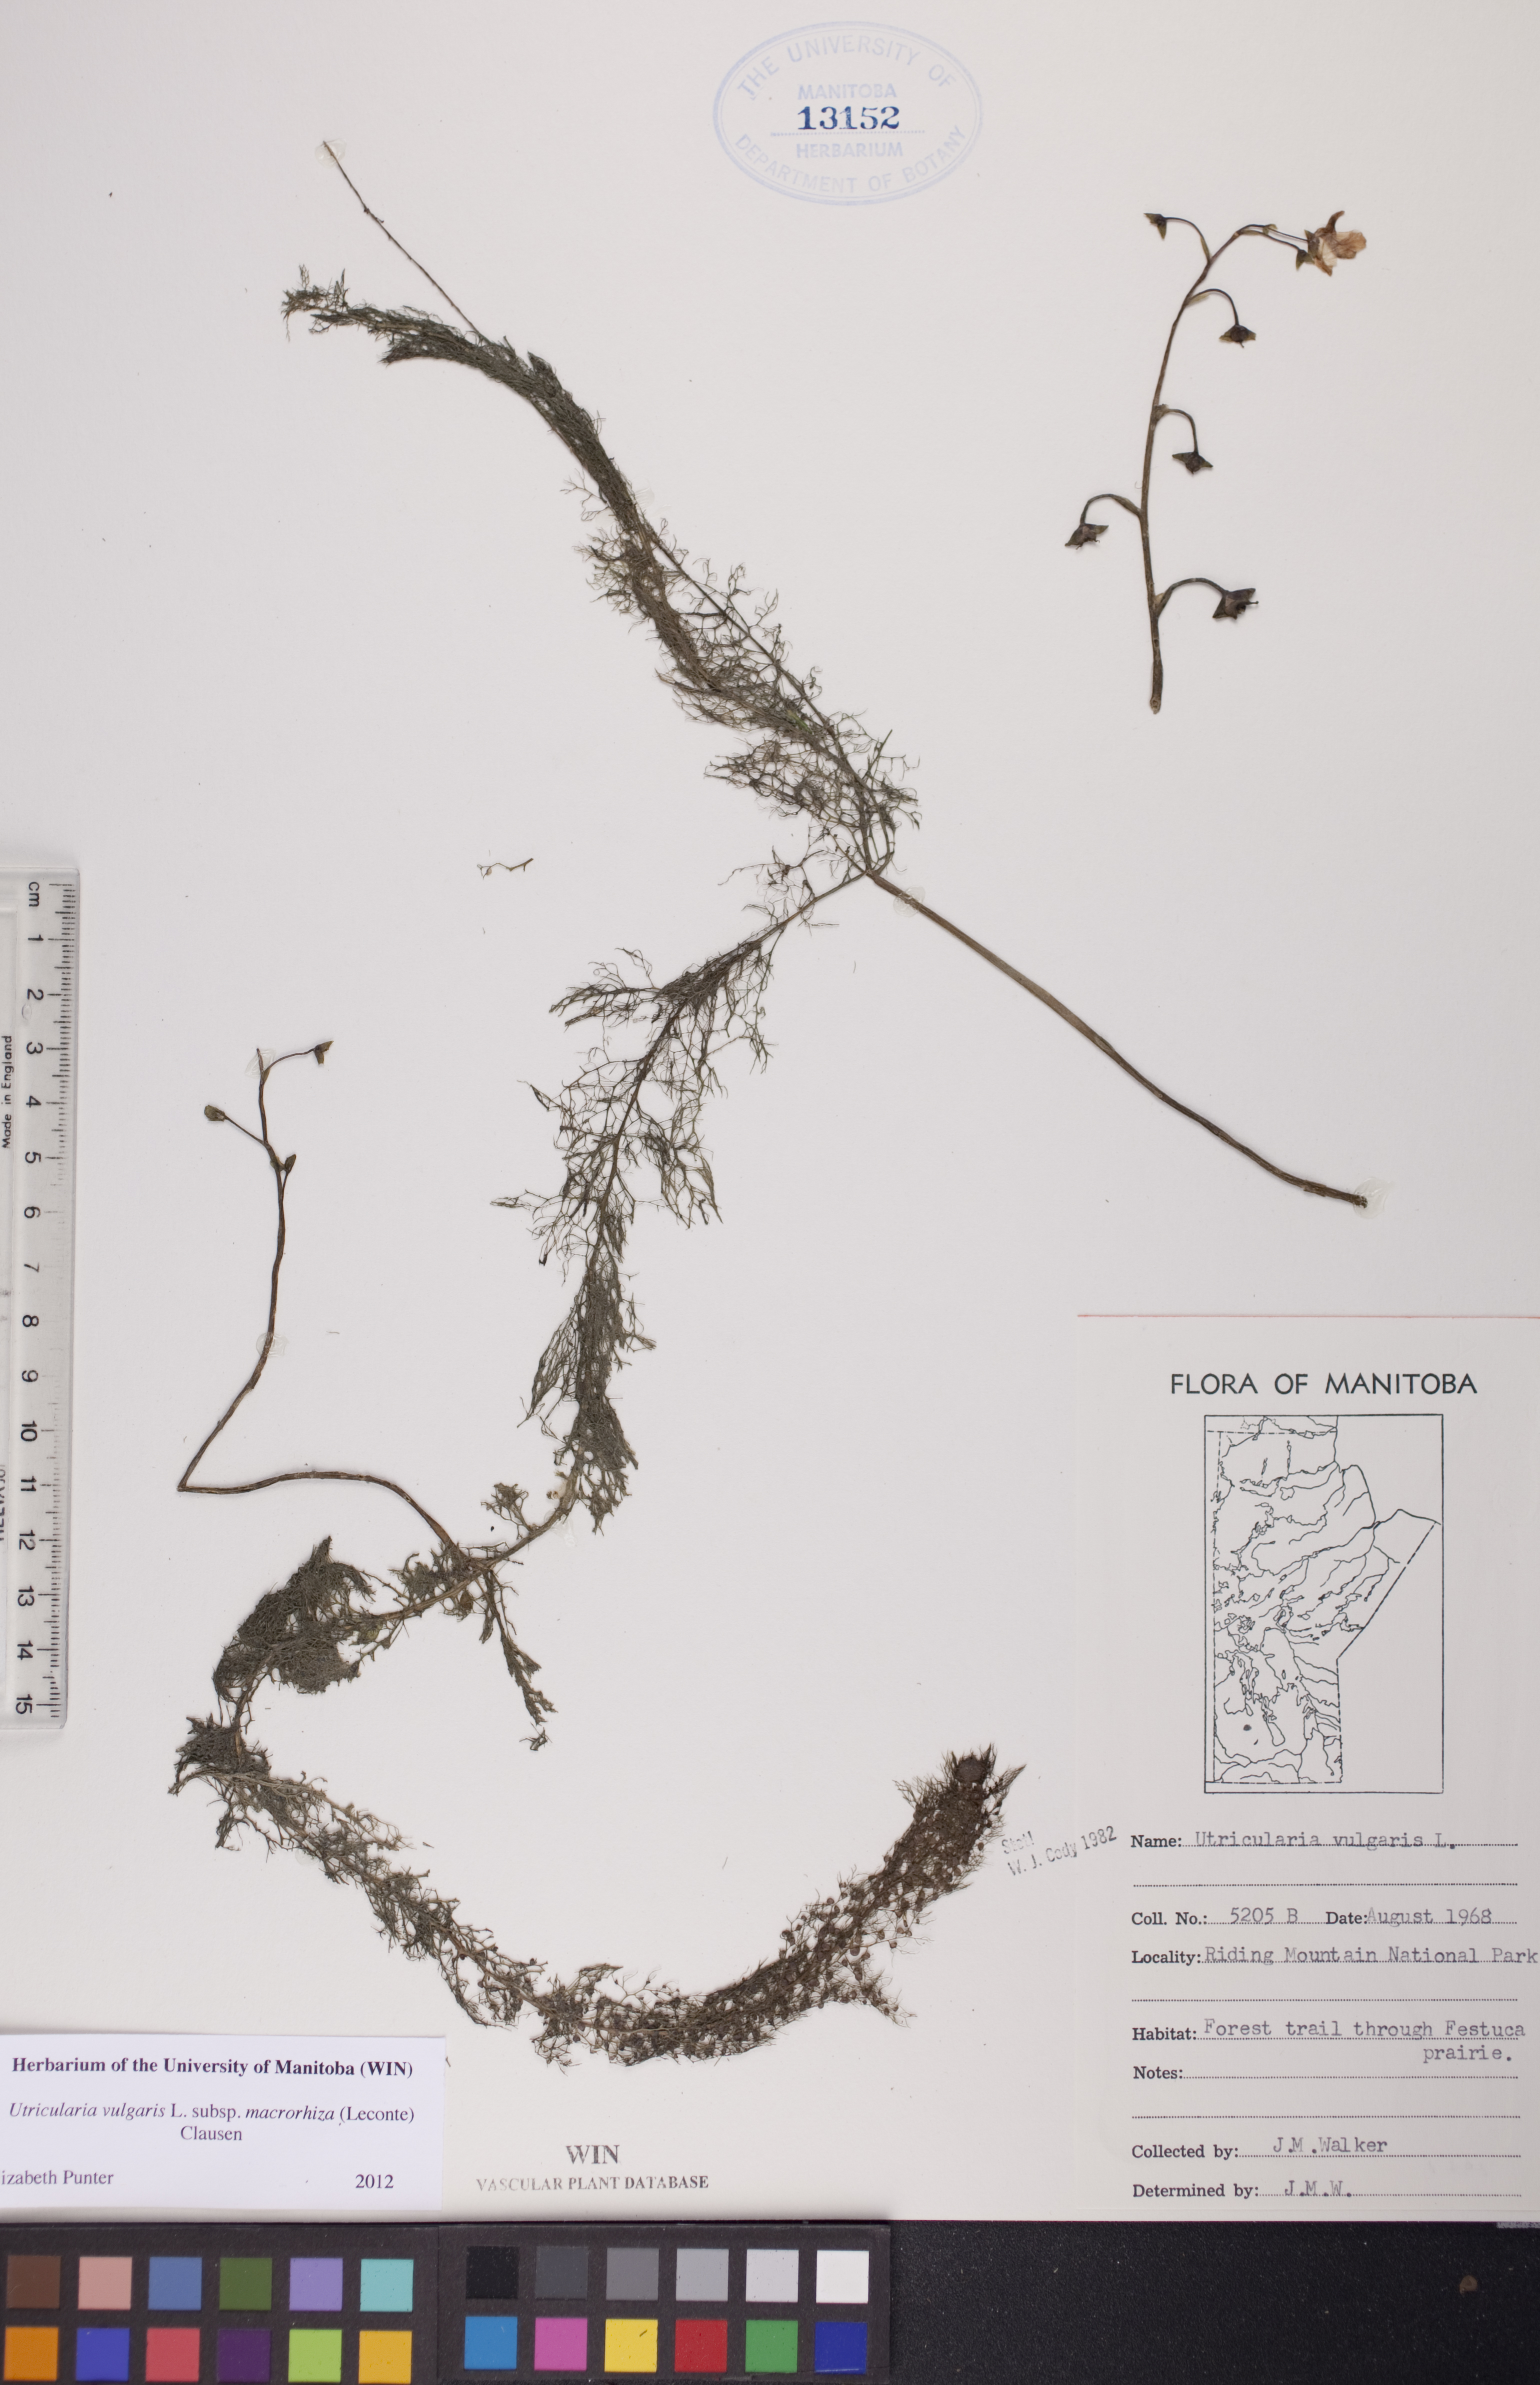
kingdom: Plantae
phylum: Tracheophyta
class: Magnoliopsida
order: Lamiales
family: Lentibulariaceae
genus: Utricularia
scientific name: Utricularia macrorhiza
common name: Common bladderwort
